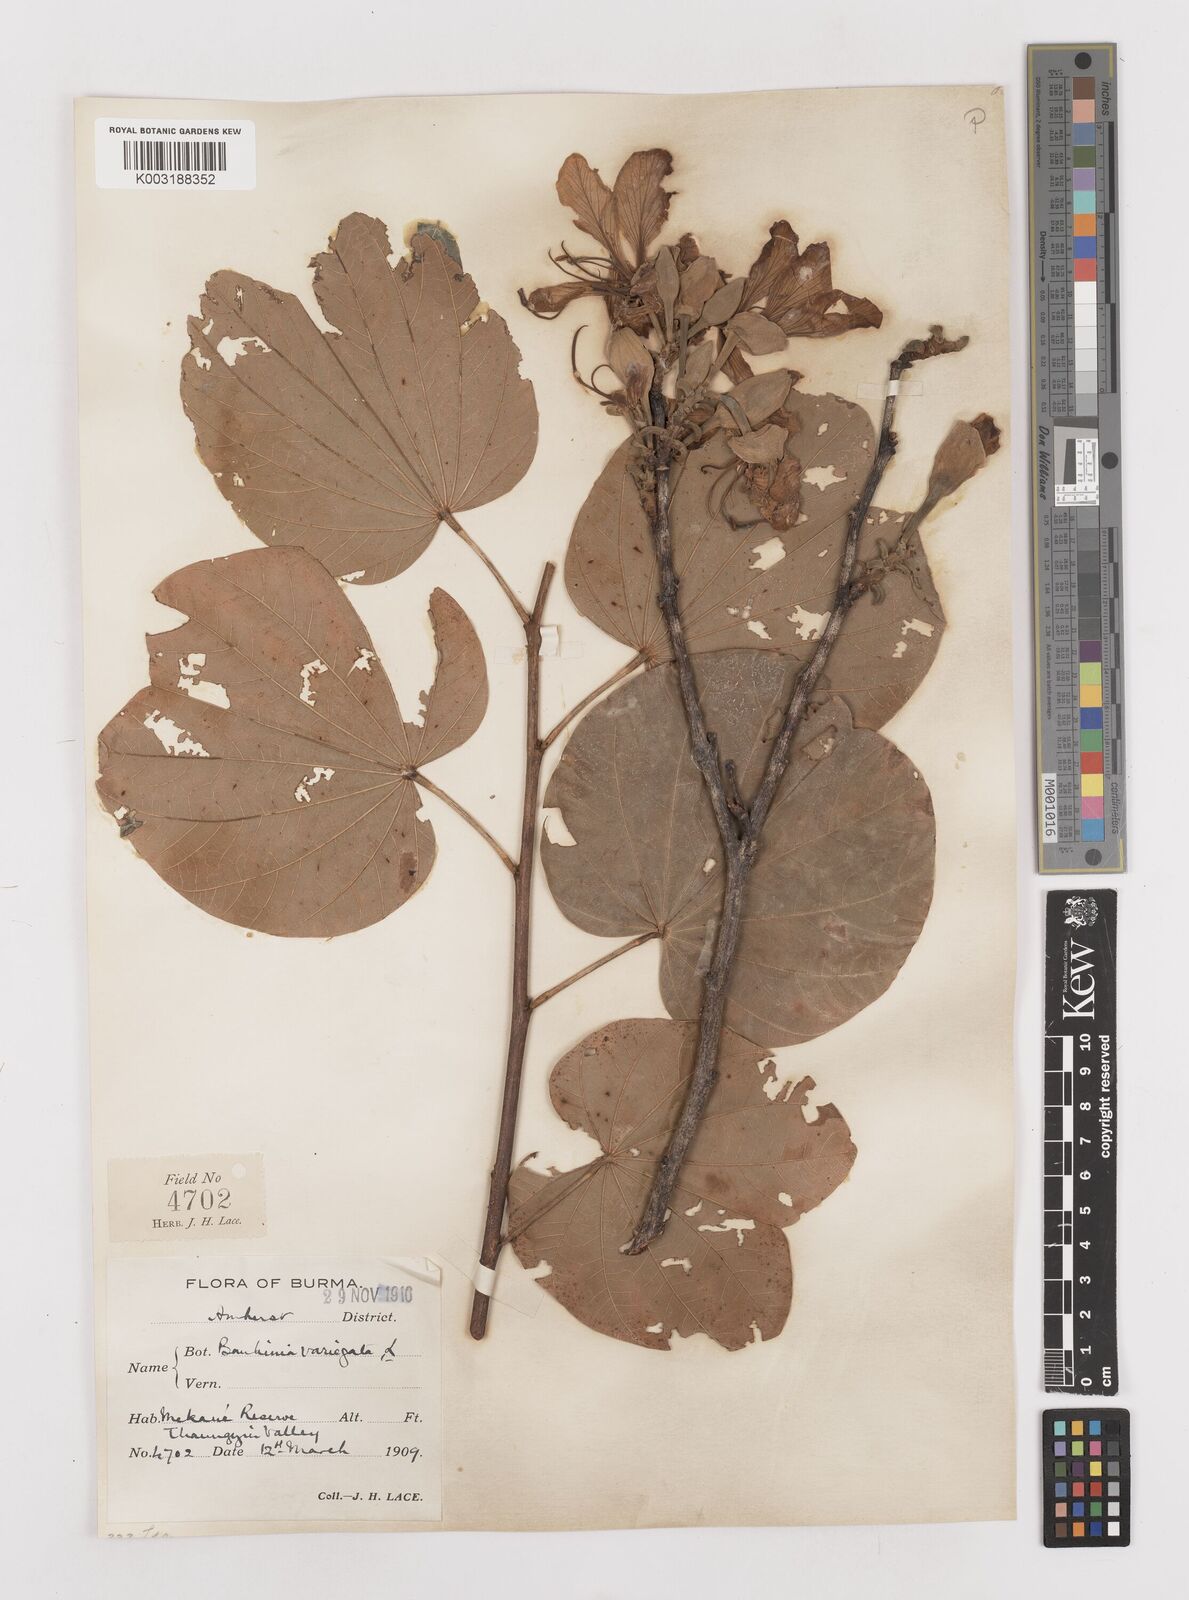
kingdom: Plantae
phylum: Tracheophyta
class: Magnoliopsida
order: Fabales
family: Fabaceae
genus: Bauhinia
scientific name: Bauhinia variegata
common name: Mountain ebony
